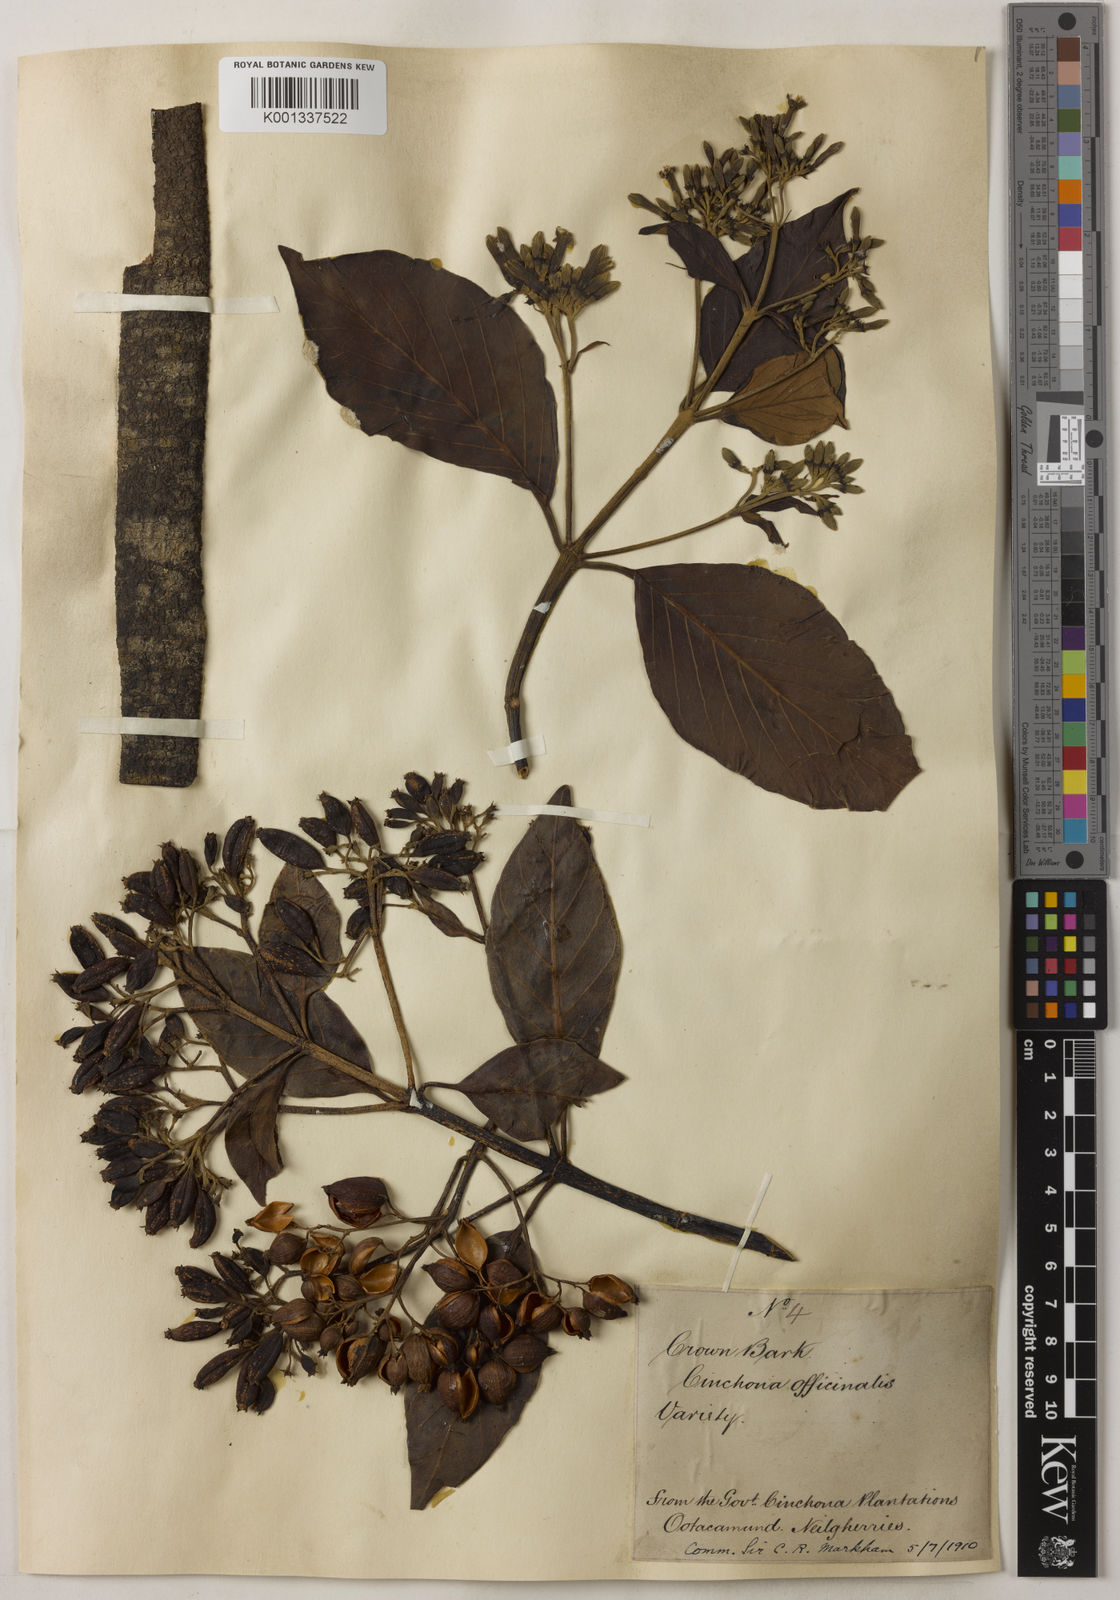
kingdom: Plantae
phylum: Tracheophyta
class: Magnoliopsida
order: Gentianales
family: Rubiaceae
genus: Cinchona
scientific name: Cinchona officinalis
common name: Lojabark
